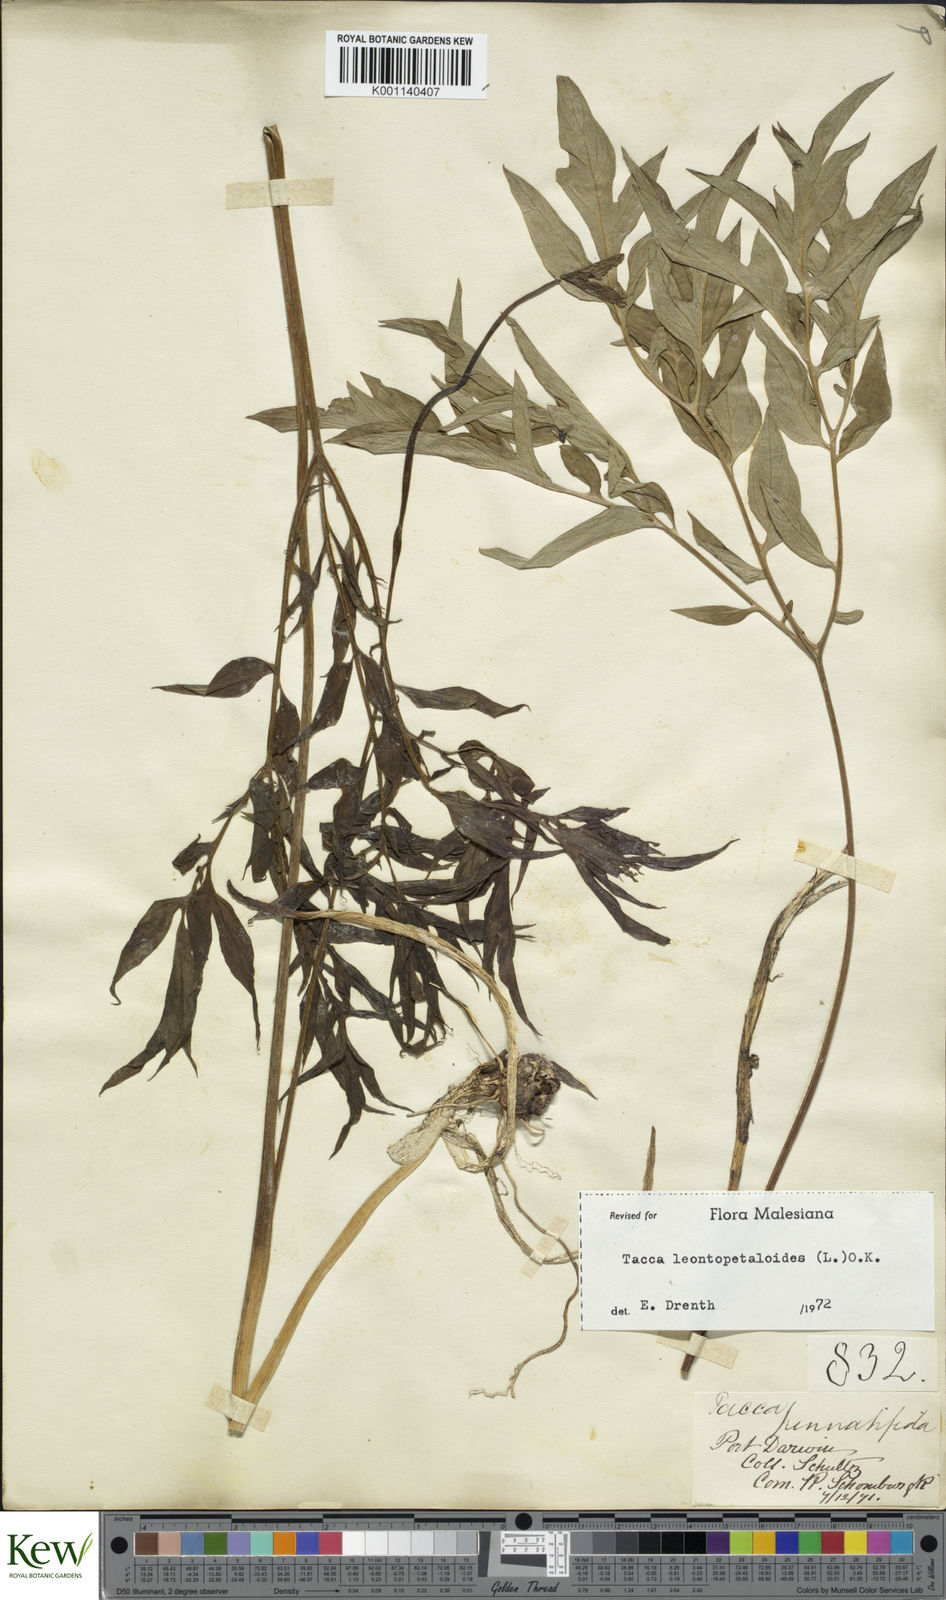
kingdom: Plantae
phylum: Tracheophyta
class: Liliopsida
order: Dioscoreales
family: Dioscoreaceae
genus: Tacca
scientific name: Tacca leontopetaloides
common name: Arrowroot
